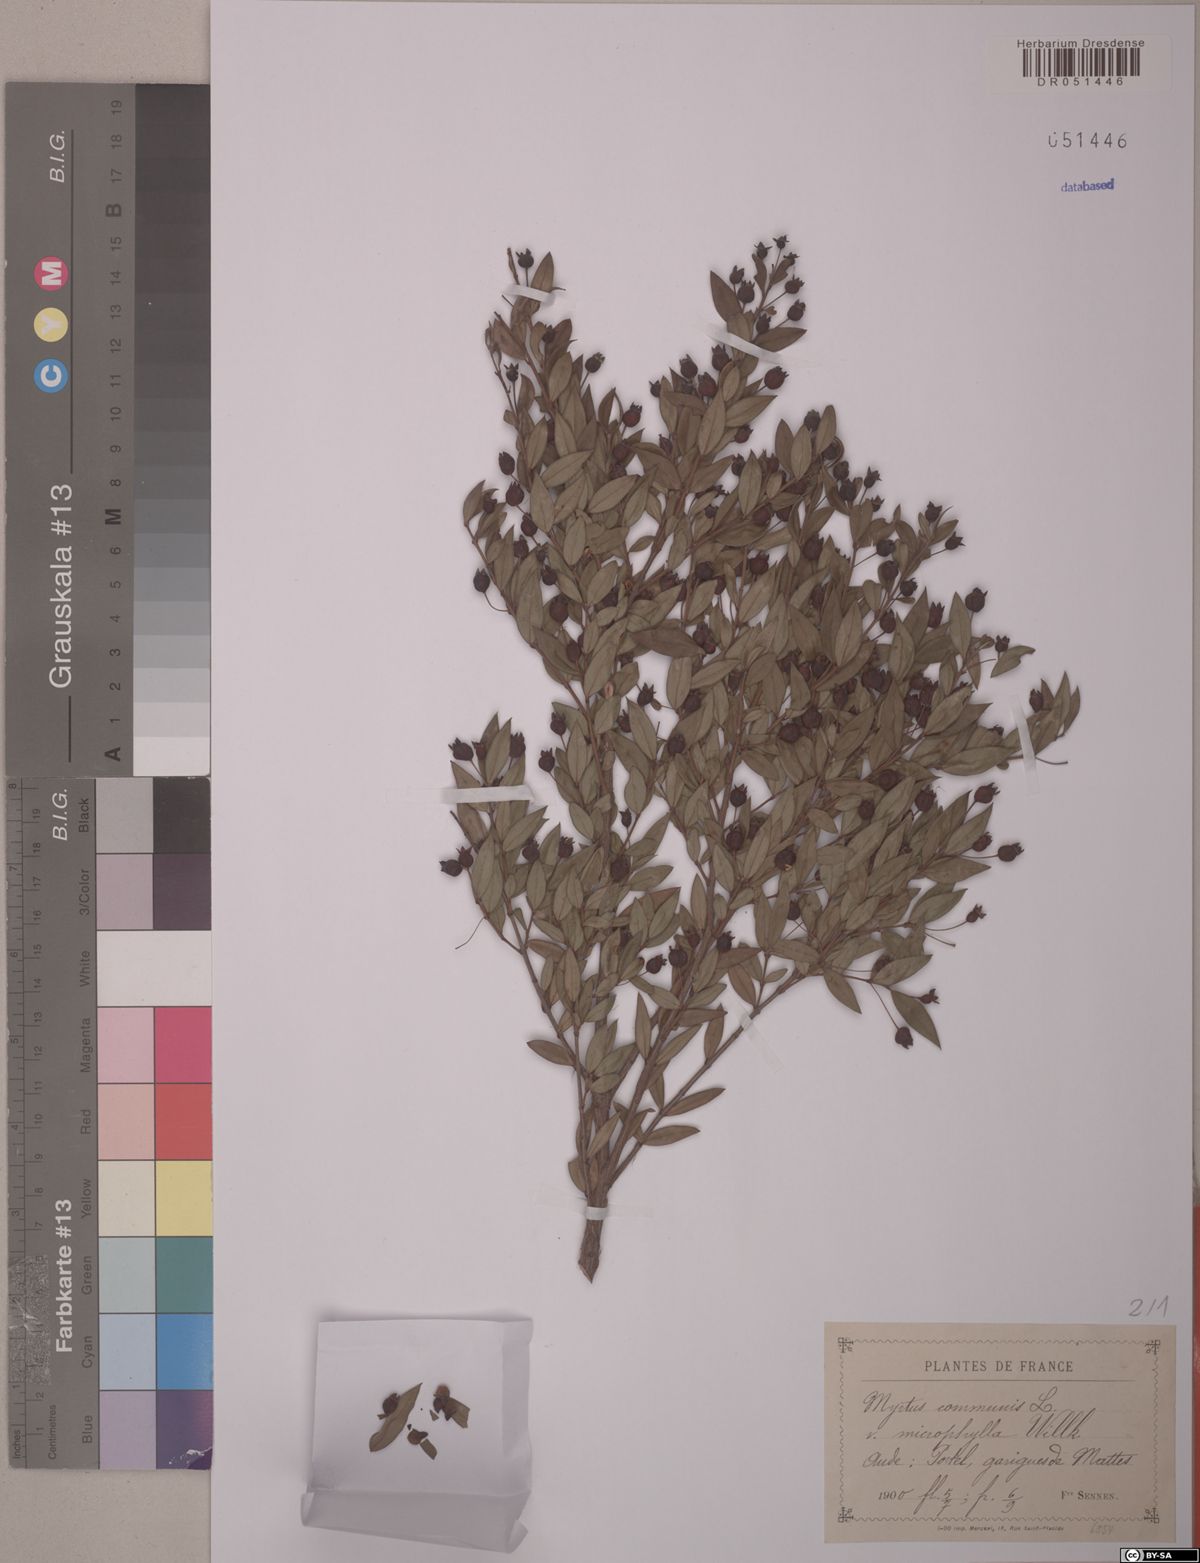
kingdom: Plantae
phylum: Tracheophyta
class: Magnoliopsida
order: Myrtales
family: Myrtaceae
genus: Myrtus
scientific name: Myrtus communis
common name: Myrtle
